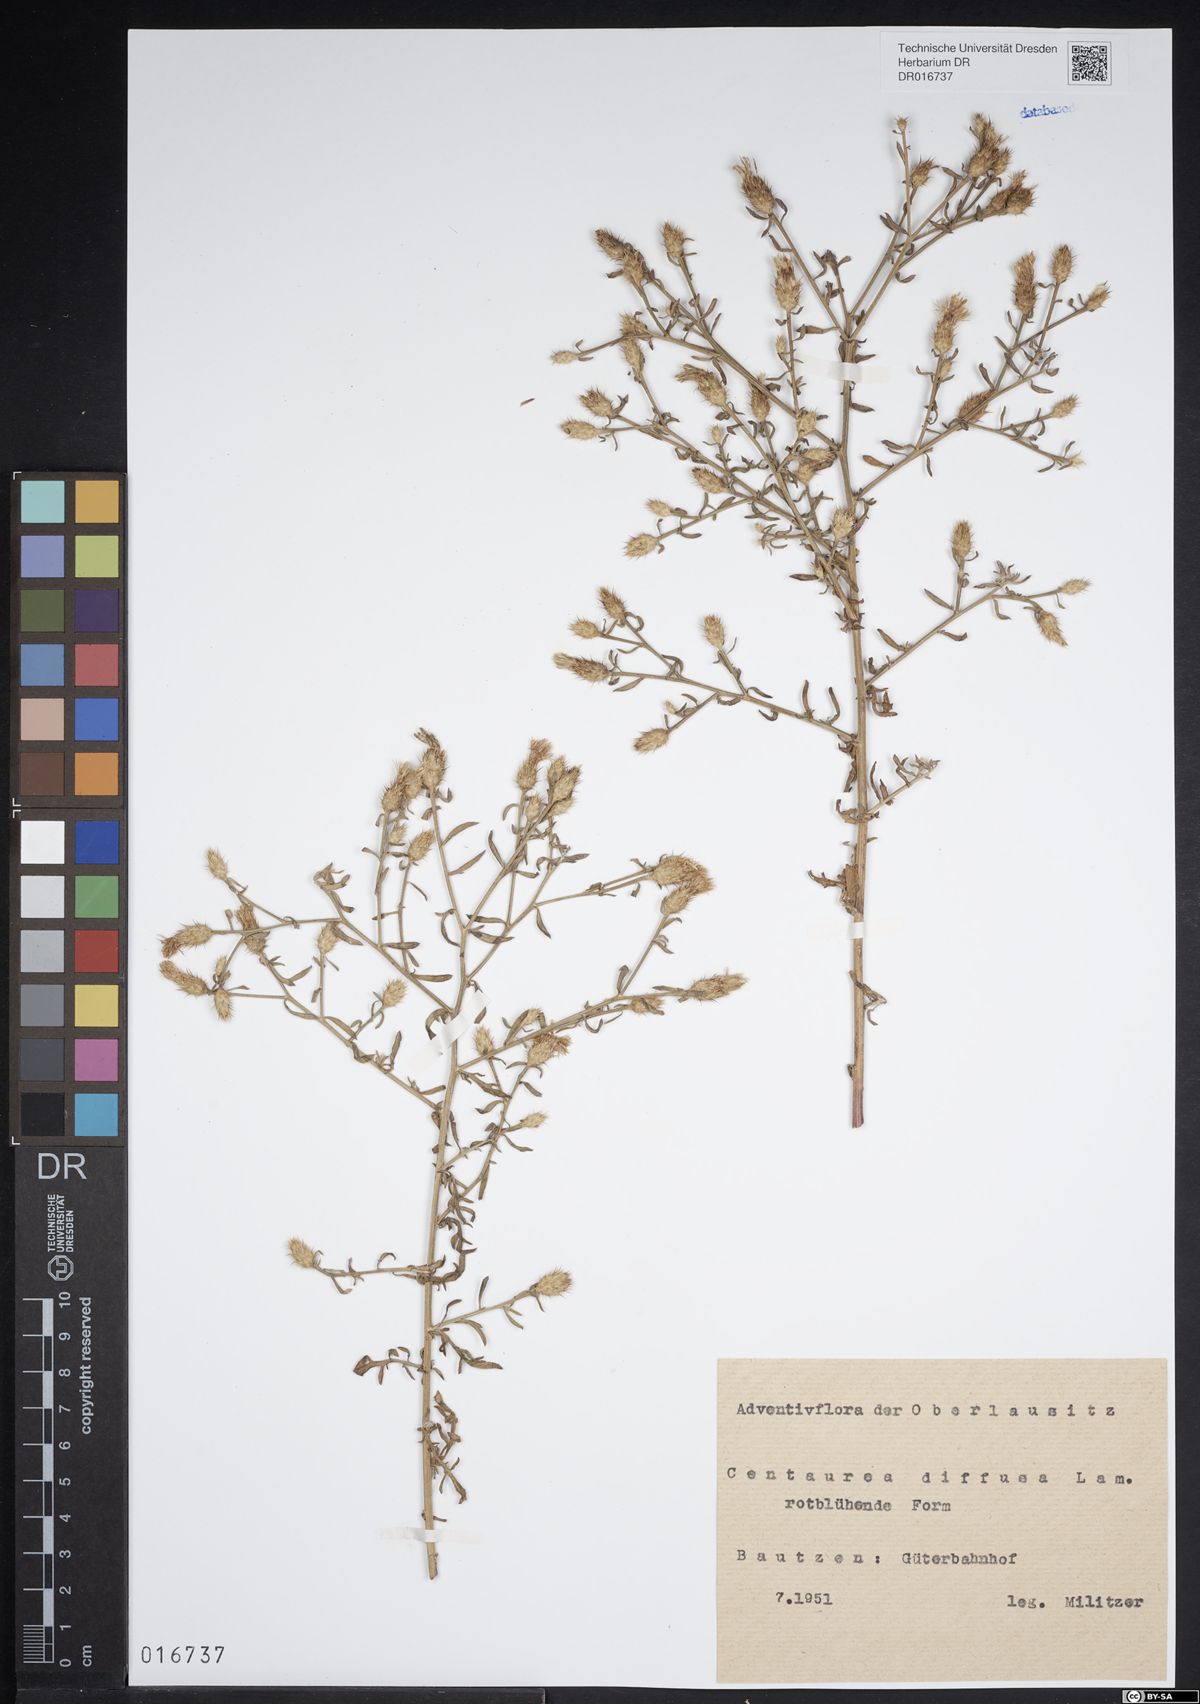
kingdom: Plantae
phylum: Tracheophyta
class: Magnoliopsida
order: Asterales
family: Asteraceae
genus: Centaurea
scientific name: Centaurea diffusa
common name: Diffuse knapweed
